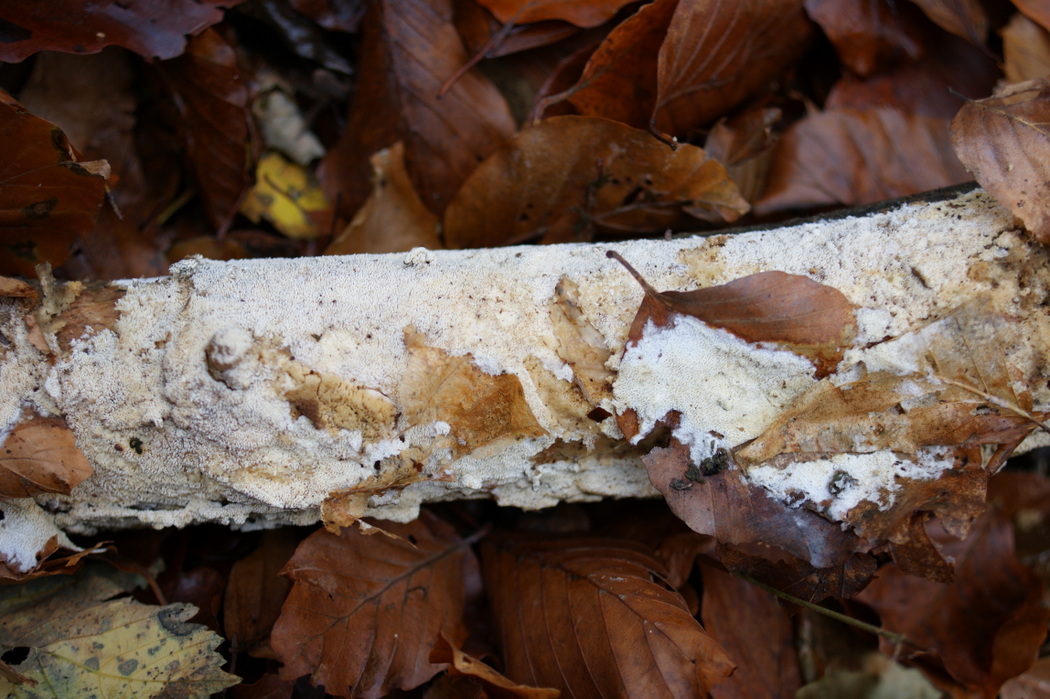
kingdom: Fungi
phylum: Basidiomycota
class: Agaricomycetes
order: Hymenochaetales
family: Schizoporaceae
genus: Schizopora
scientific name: Schizopora paradoxa
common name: hvid tandsvamp
